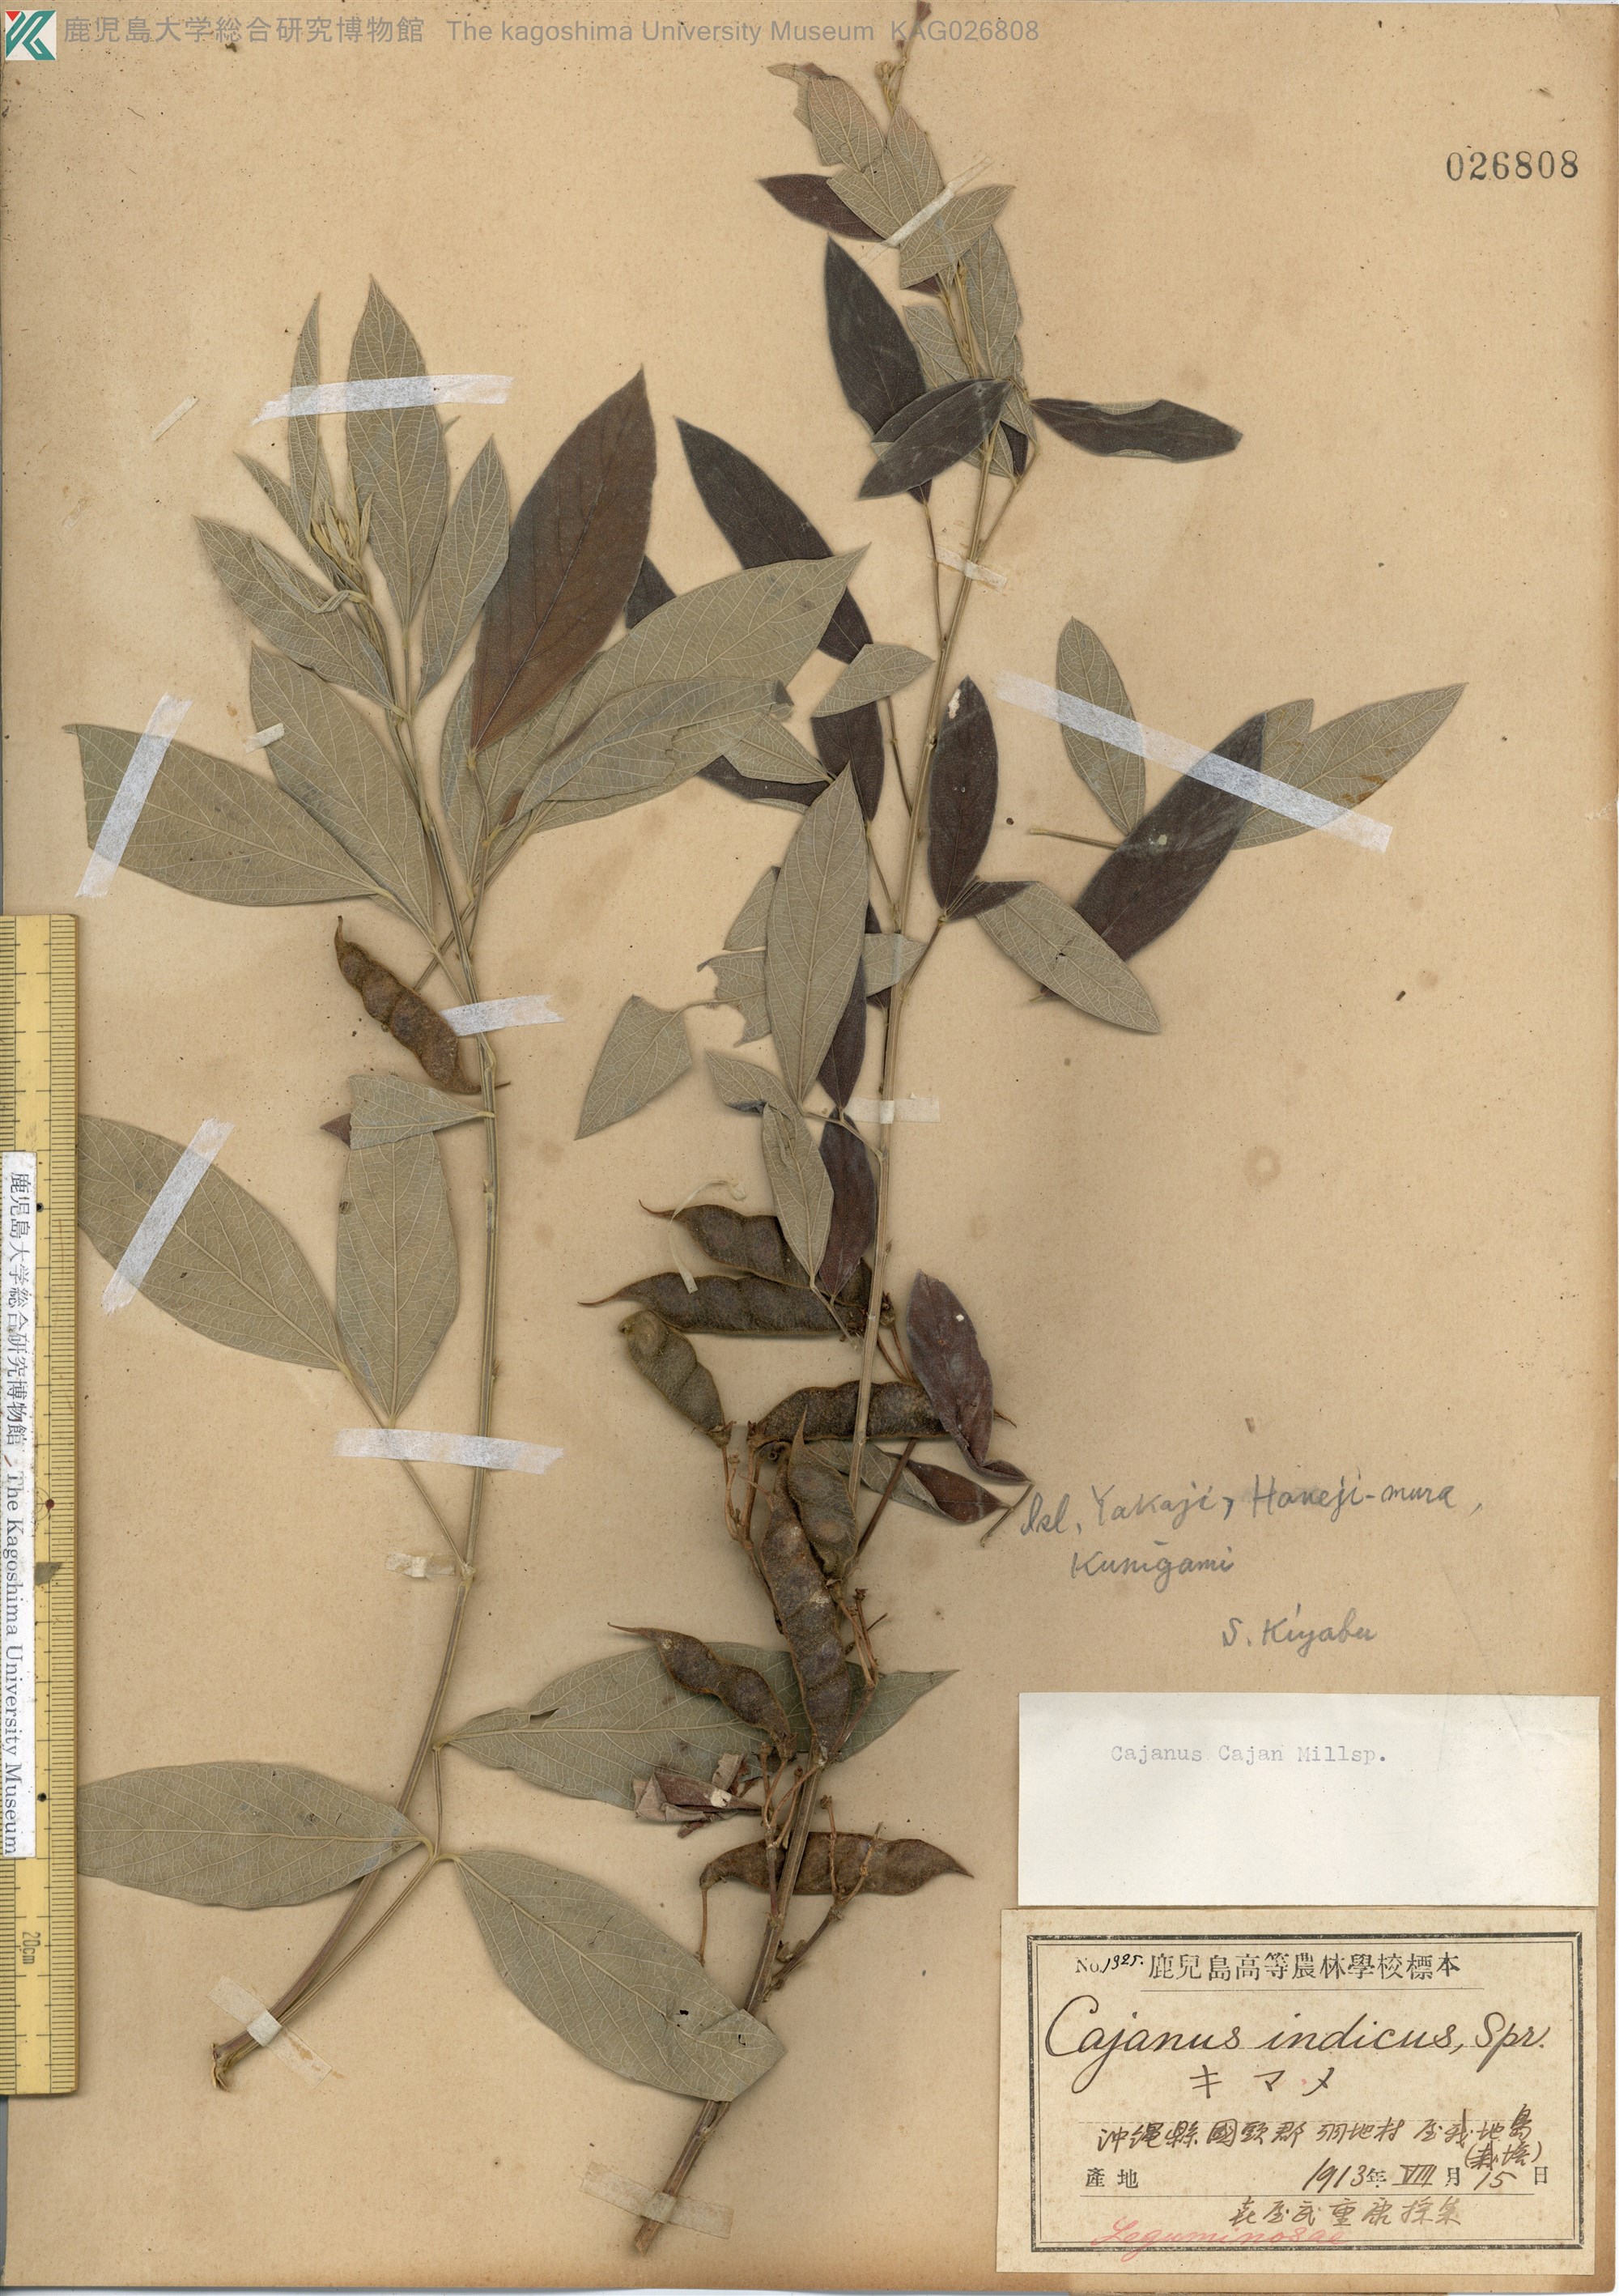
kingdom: Plantae
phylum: Tracheophyta
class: Magnoliopsida
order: Fabales
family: Fabaceae
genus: Cajanus
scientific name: Cajanus cajan
